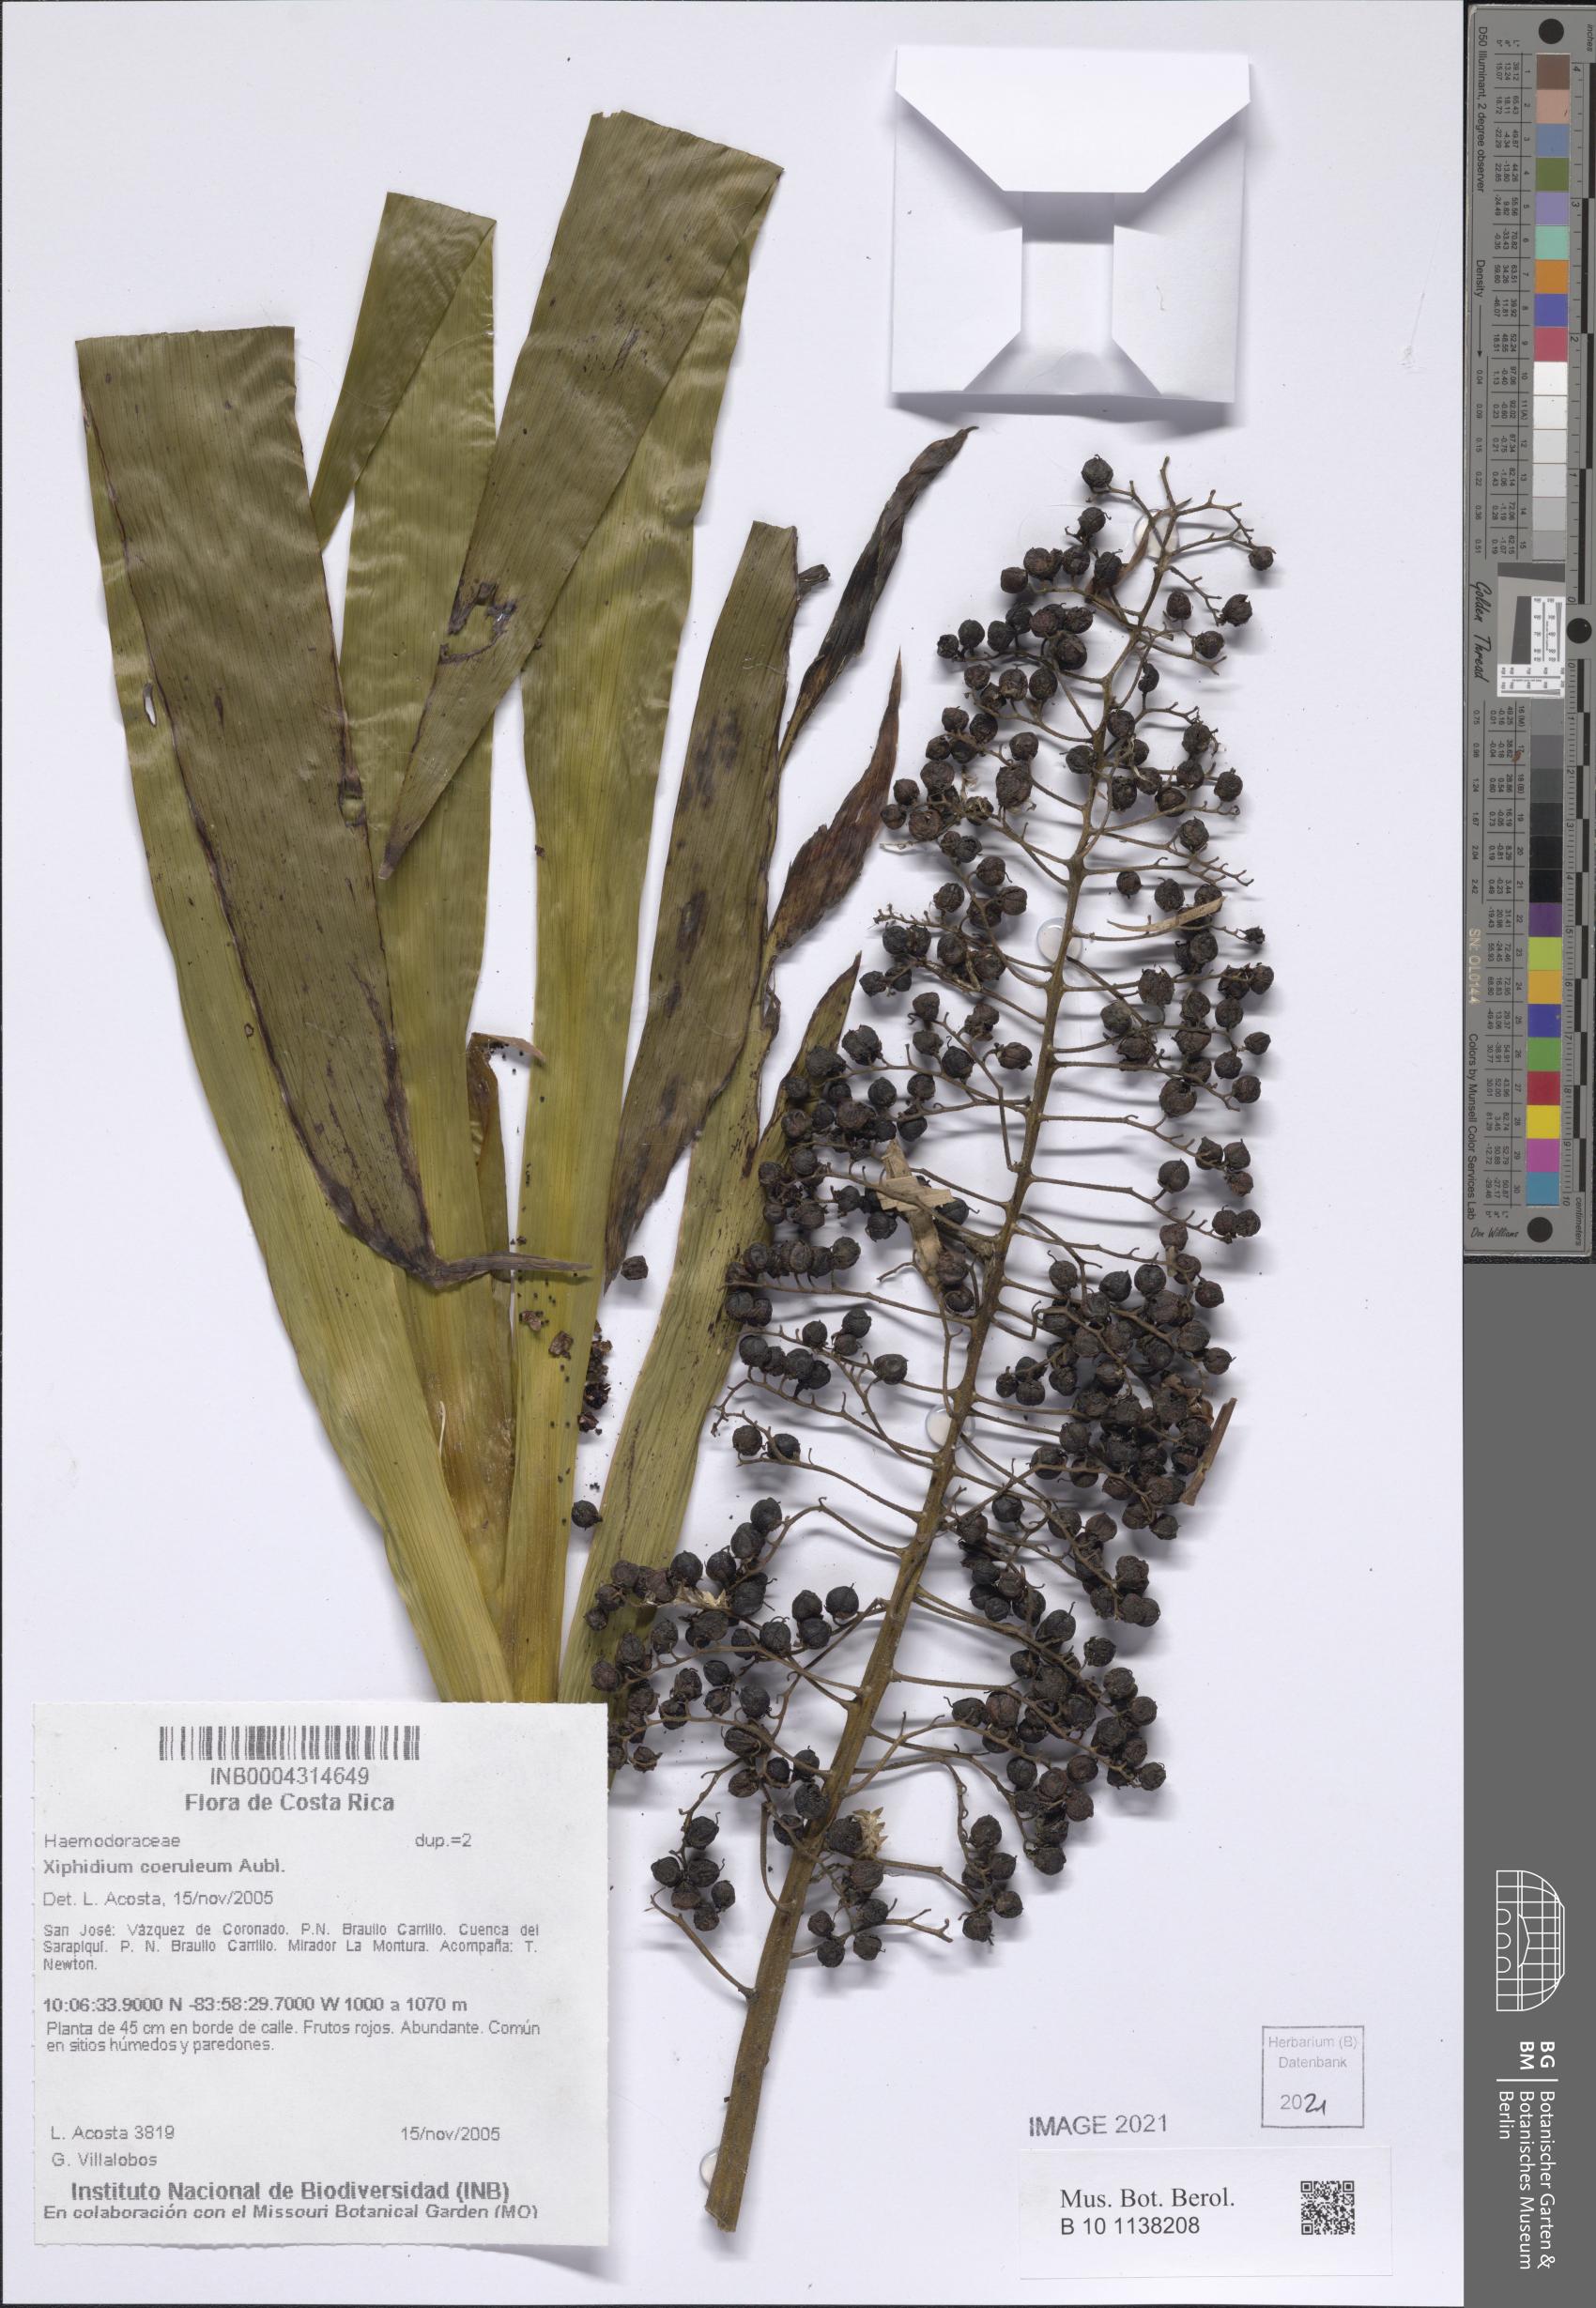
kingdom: Plantae
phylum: Tracheophyta
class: Liliopsida
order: Commelinales
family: Haemodoraceae
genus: Xiphidium
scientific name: Xiphidium caeruleum
